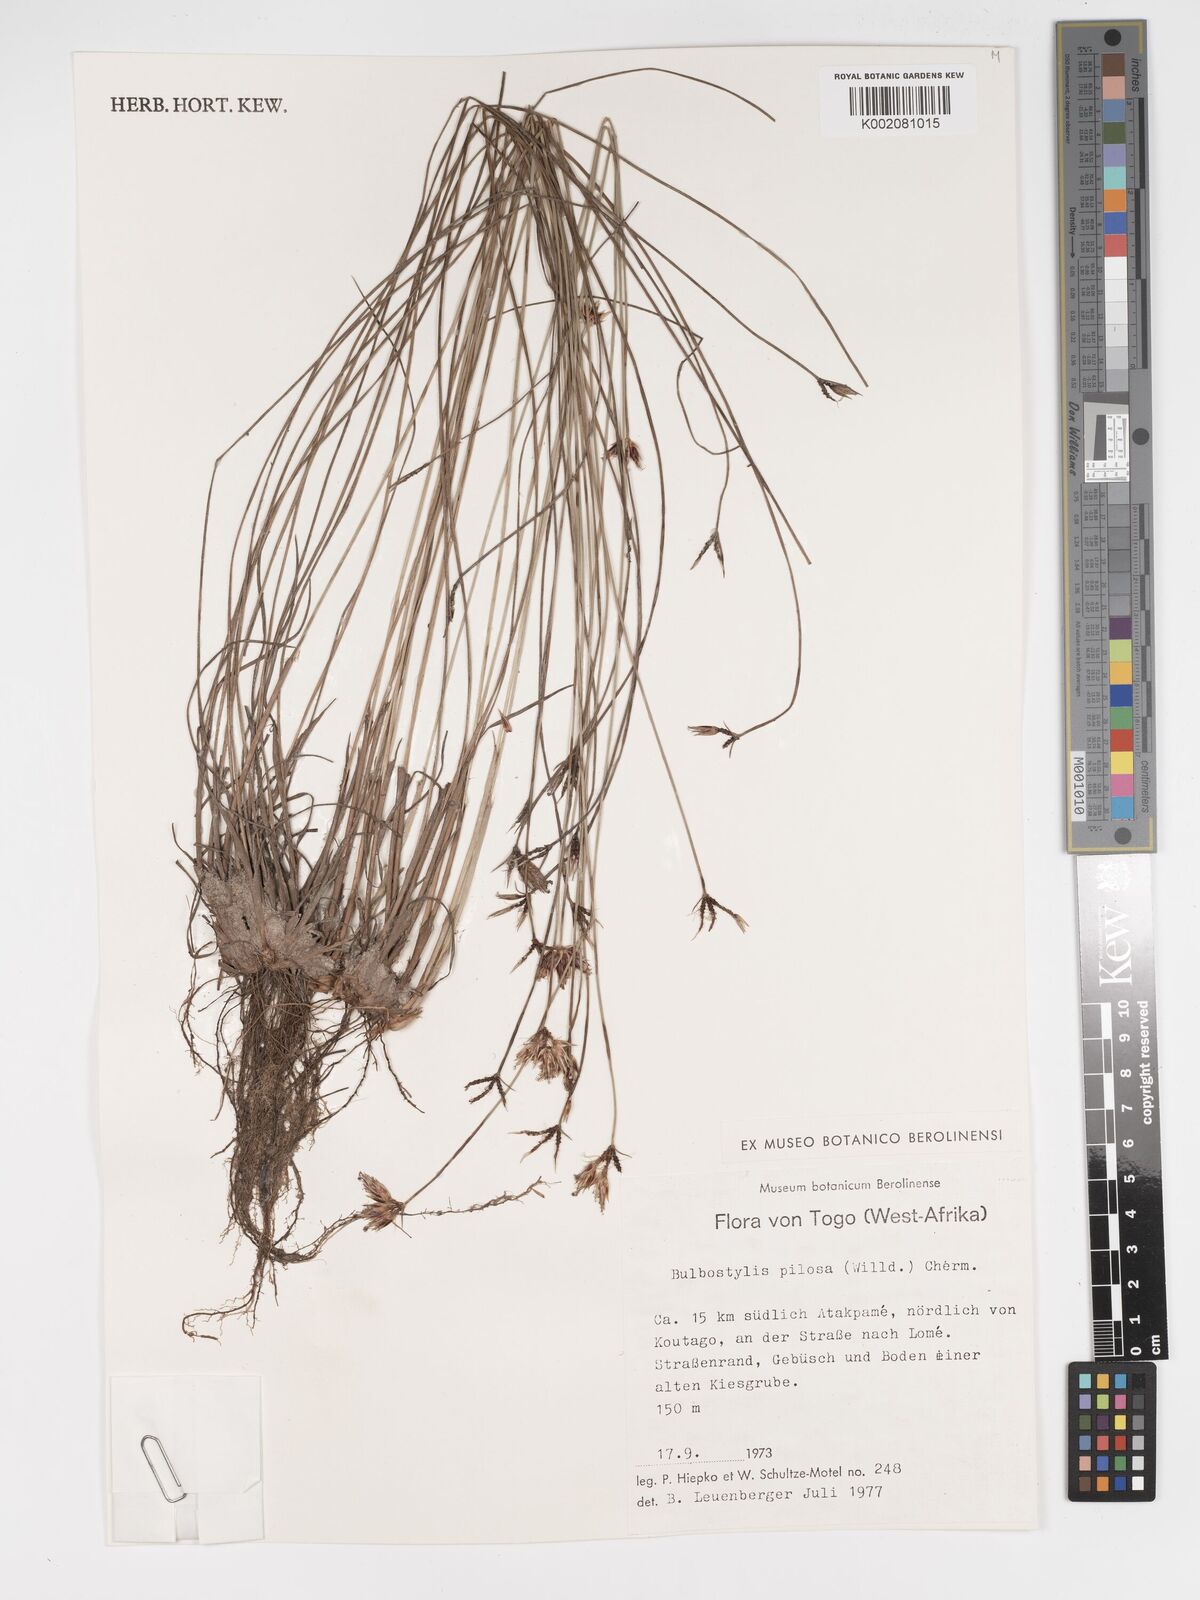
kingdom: Plantae
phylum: Tracheophyta
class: Liliopsida
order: Poales
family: Cyperaceae
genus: Bulbostylis
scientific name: Bulbostylis pilosa
